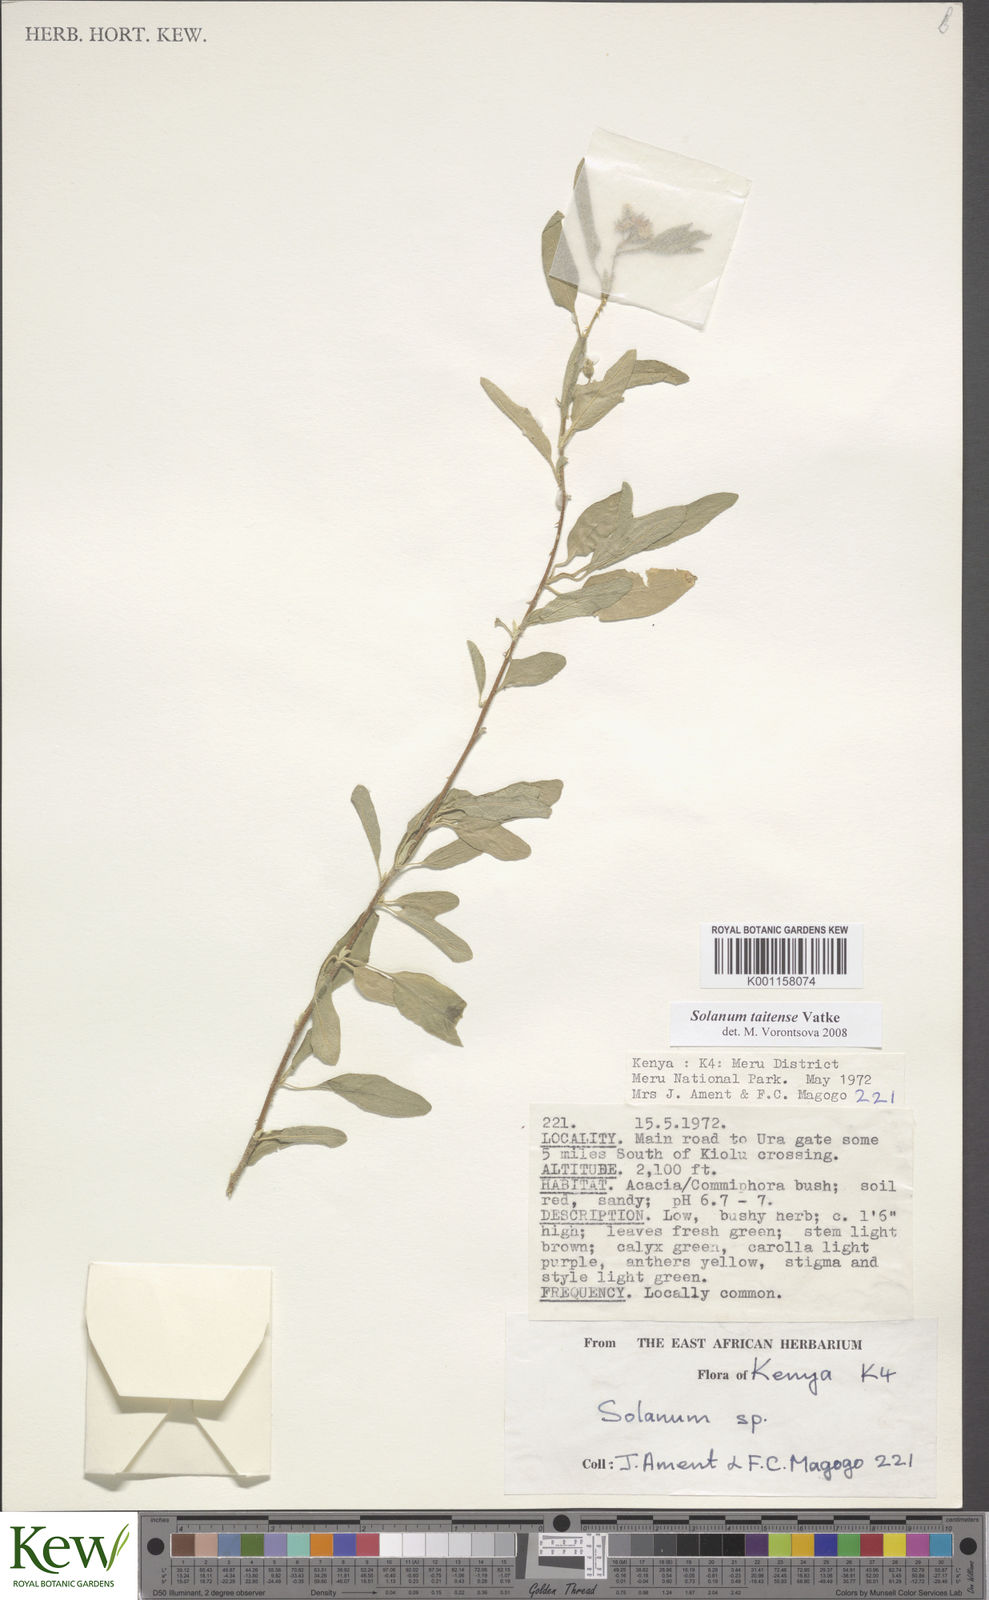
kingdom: Plantae
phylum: Tracheophyta
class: Magnoliopsida
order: Solanales
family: Solanaceae
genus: Solanum
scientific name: Solanum taitense
